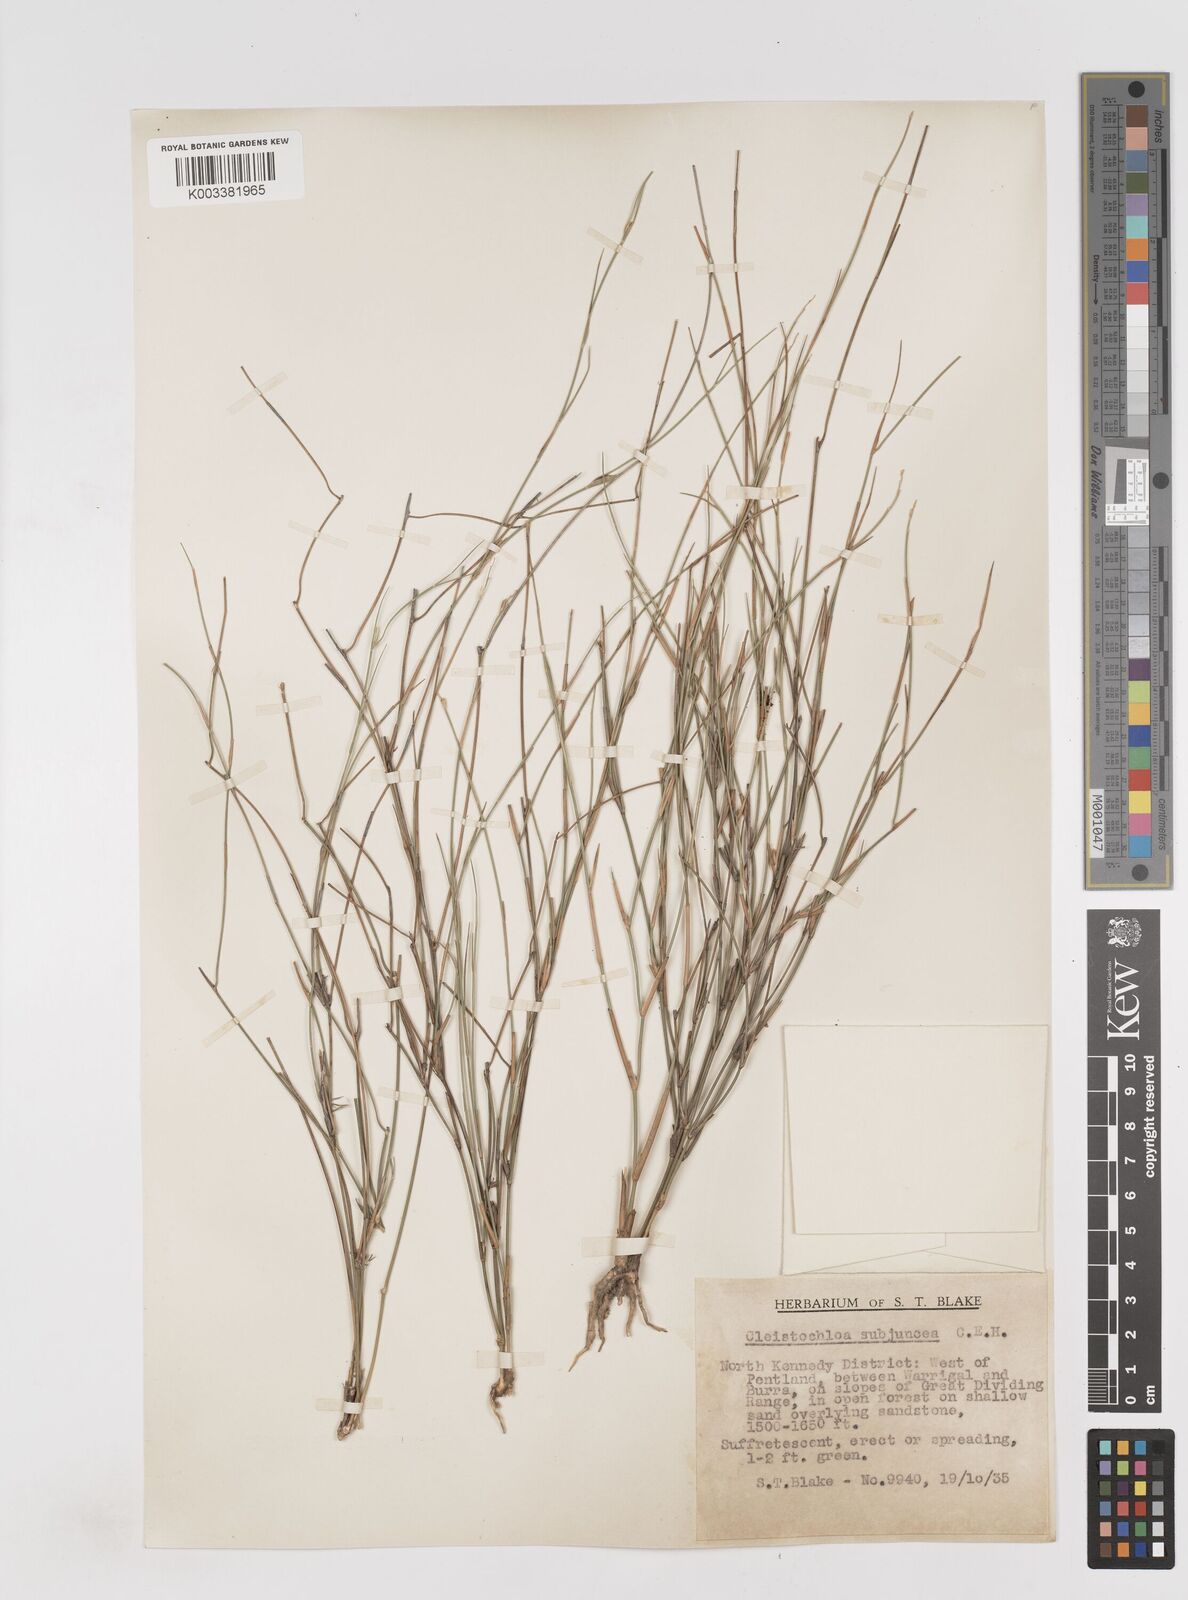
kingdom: Plantae
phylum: Tracheophyta
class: Liliopsida
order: Poales
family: Poaceae
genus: Cleistochloa
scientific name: Cleistochloa subjuncea
